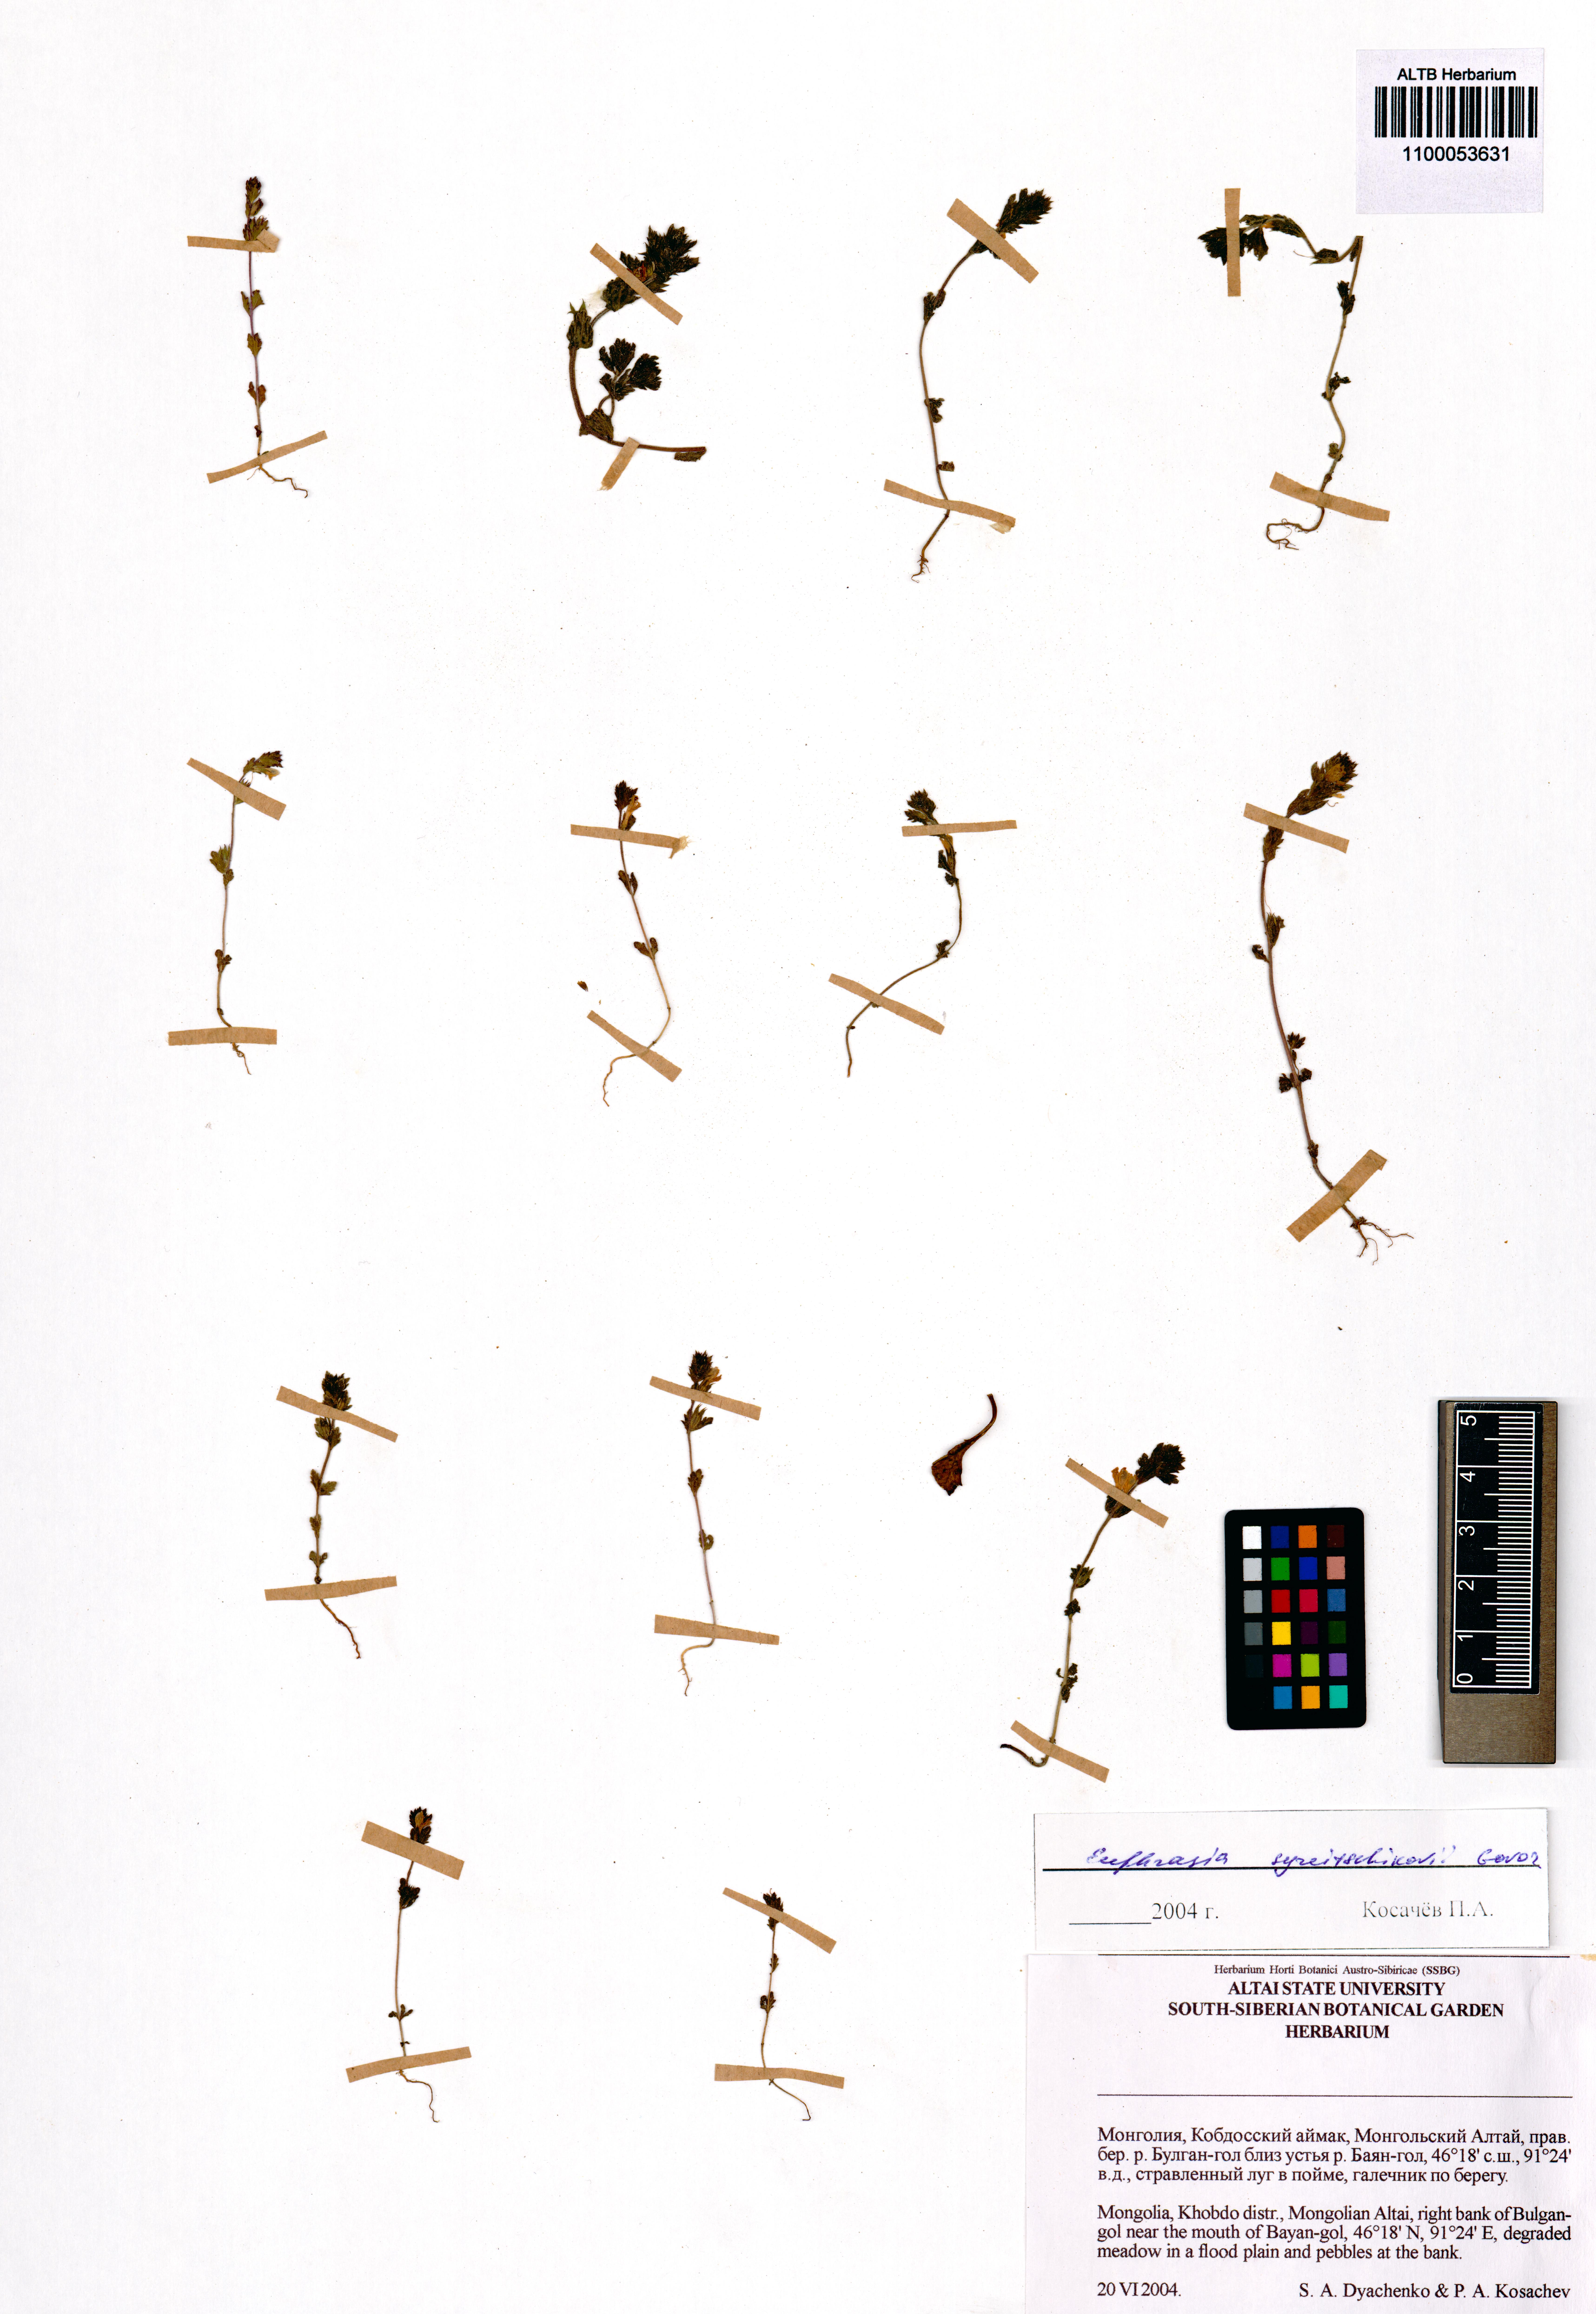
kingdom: Plantae
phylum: Tracheophyta
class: Magnoliopsida
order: Lamiales
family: Orobanchaceae
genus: Euphrasia
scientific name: Euphrasia syreitschikovii
